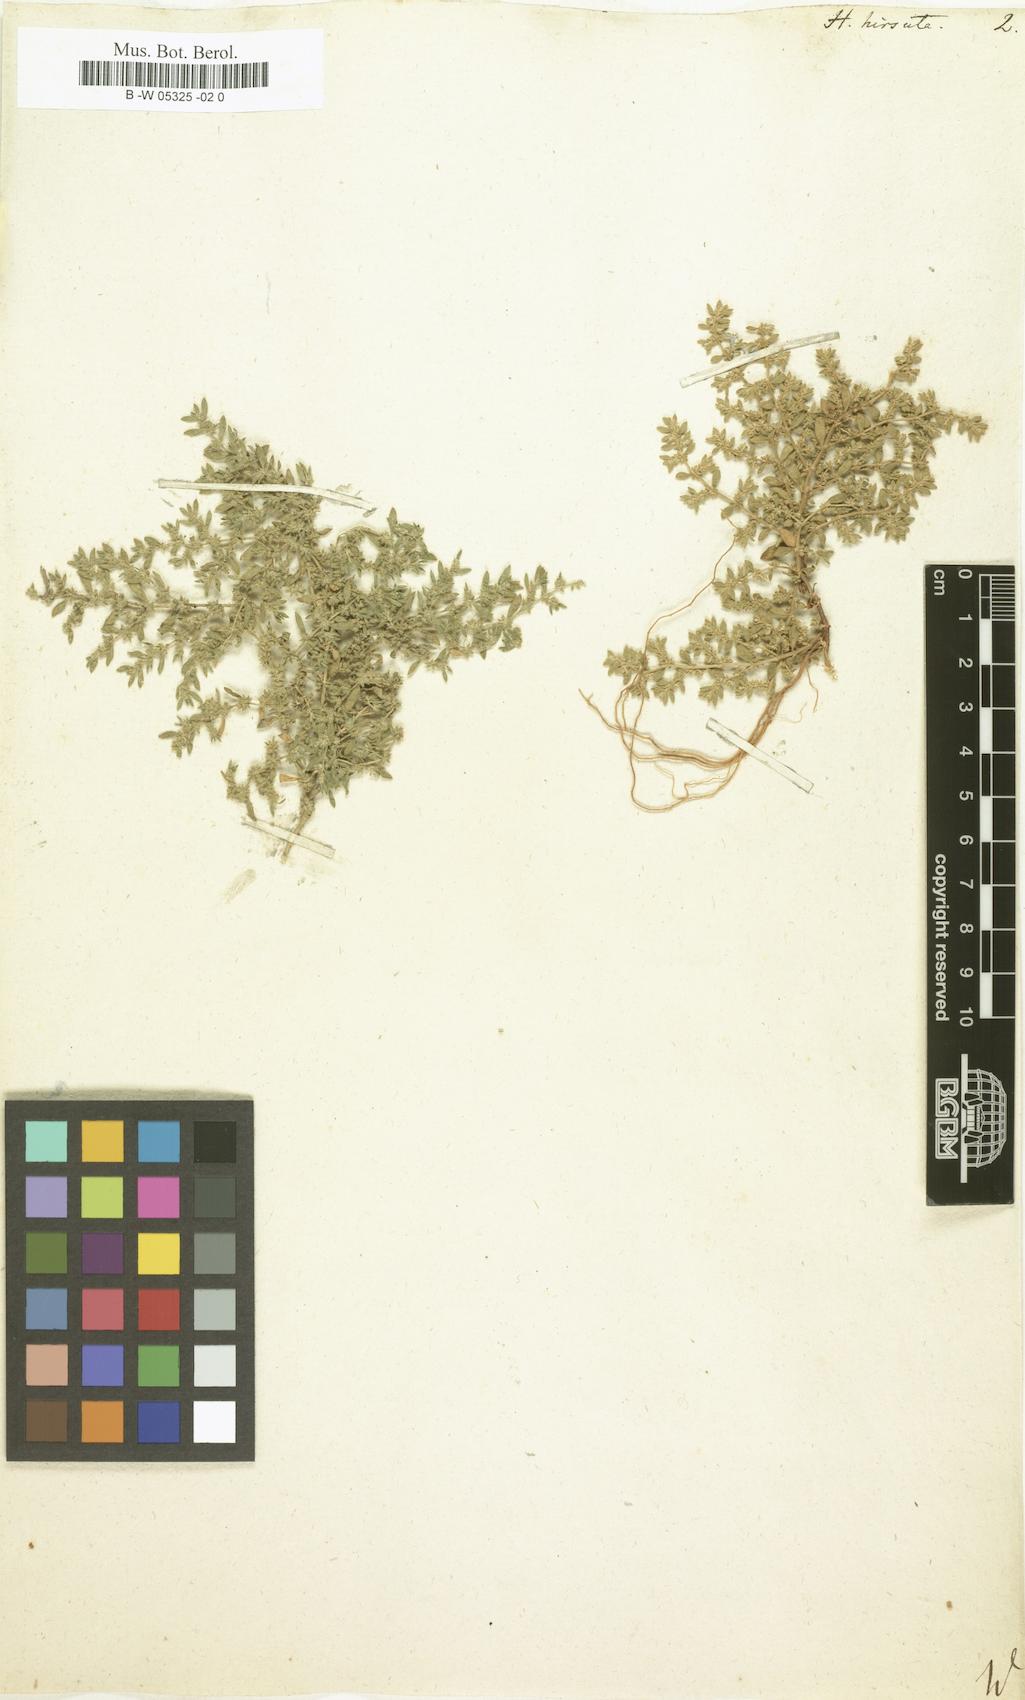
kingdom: Plantae
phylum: Tracheophyta
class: Magnoliopsida
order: Caryophyllales
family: Caryophyllaceae
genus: Herniaria
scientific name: Herniaria hirsuta
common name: Hairy rupturewort
